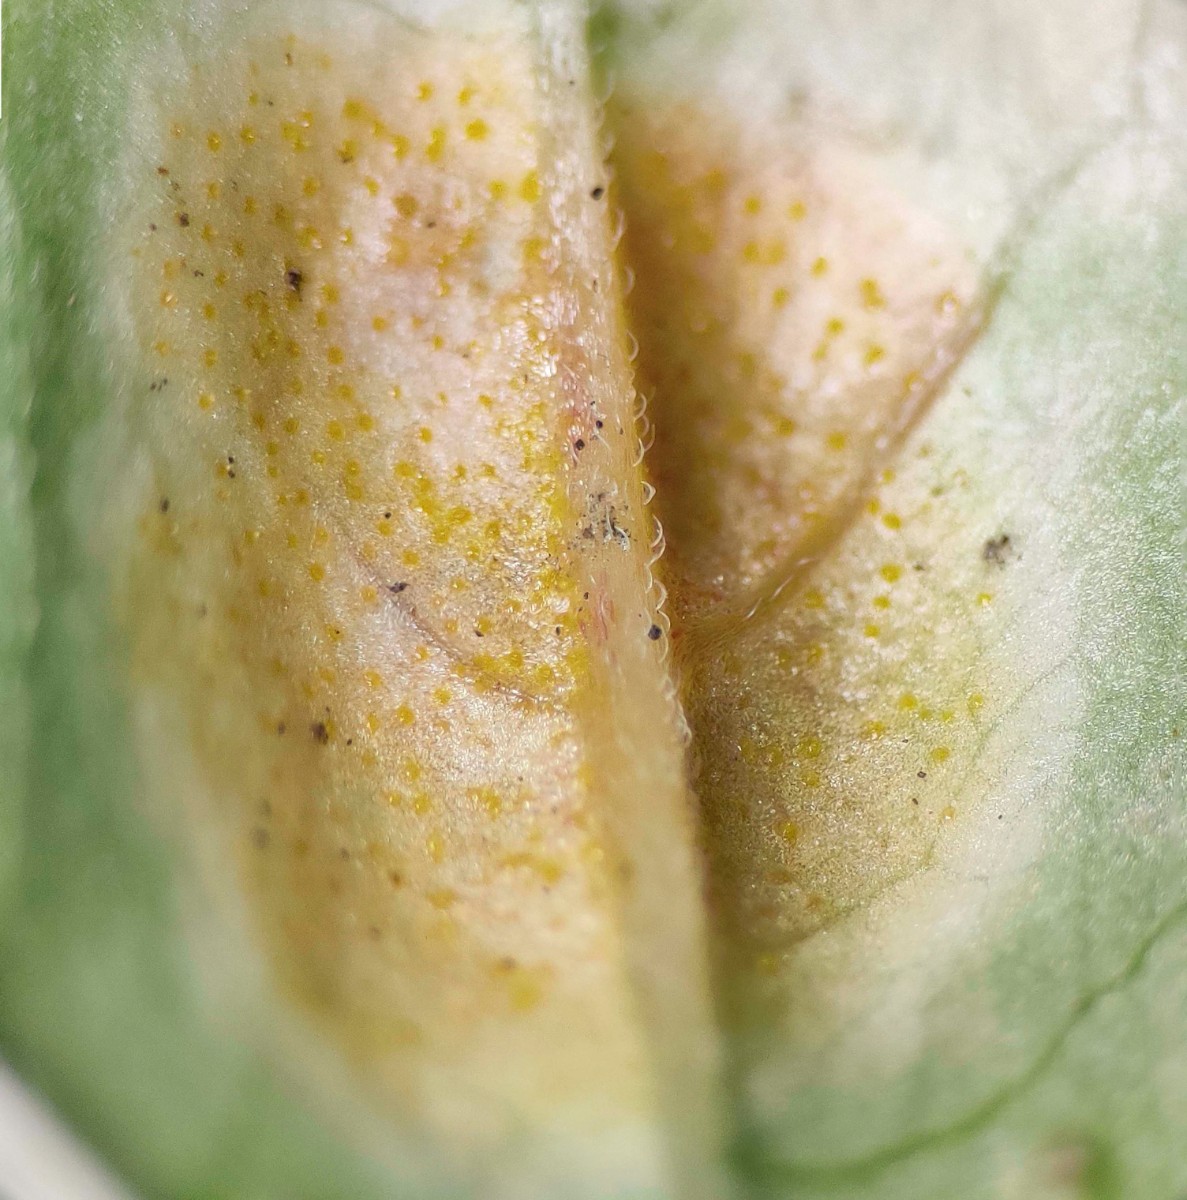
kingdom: Fungi
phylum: Basidiomycota
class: Pucciniomycetes
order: Pucciniales
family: Pucciniastraceae
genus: Pucciniastrum
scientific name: Pucciniastrum circaeae
